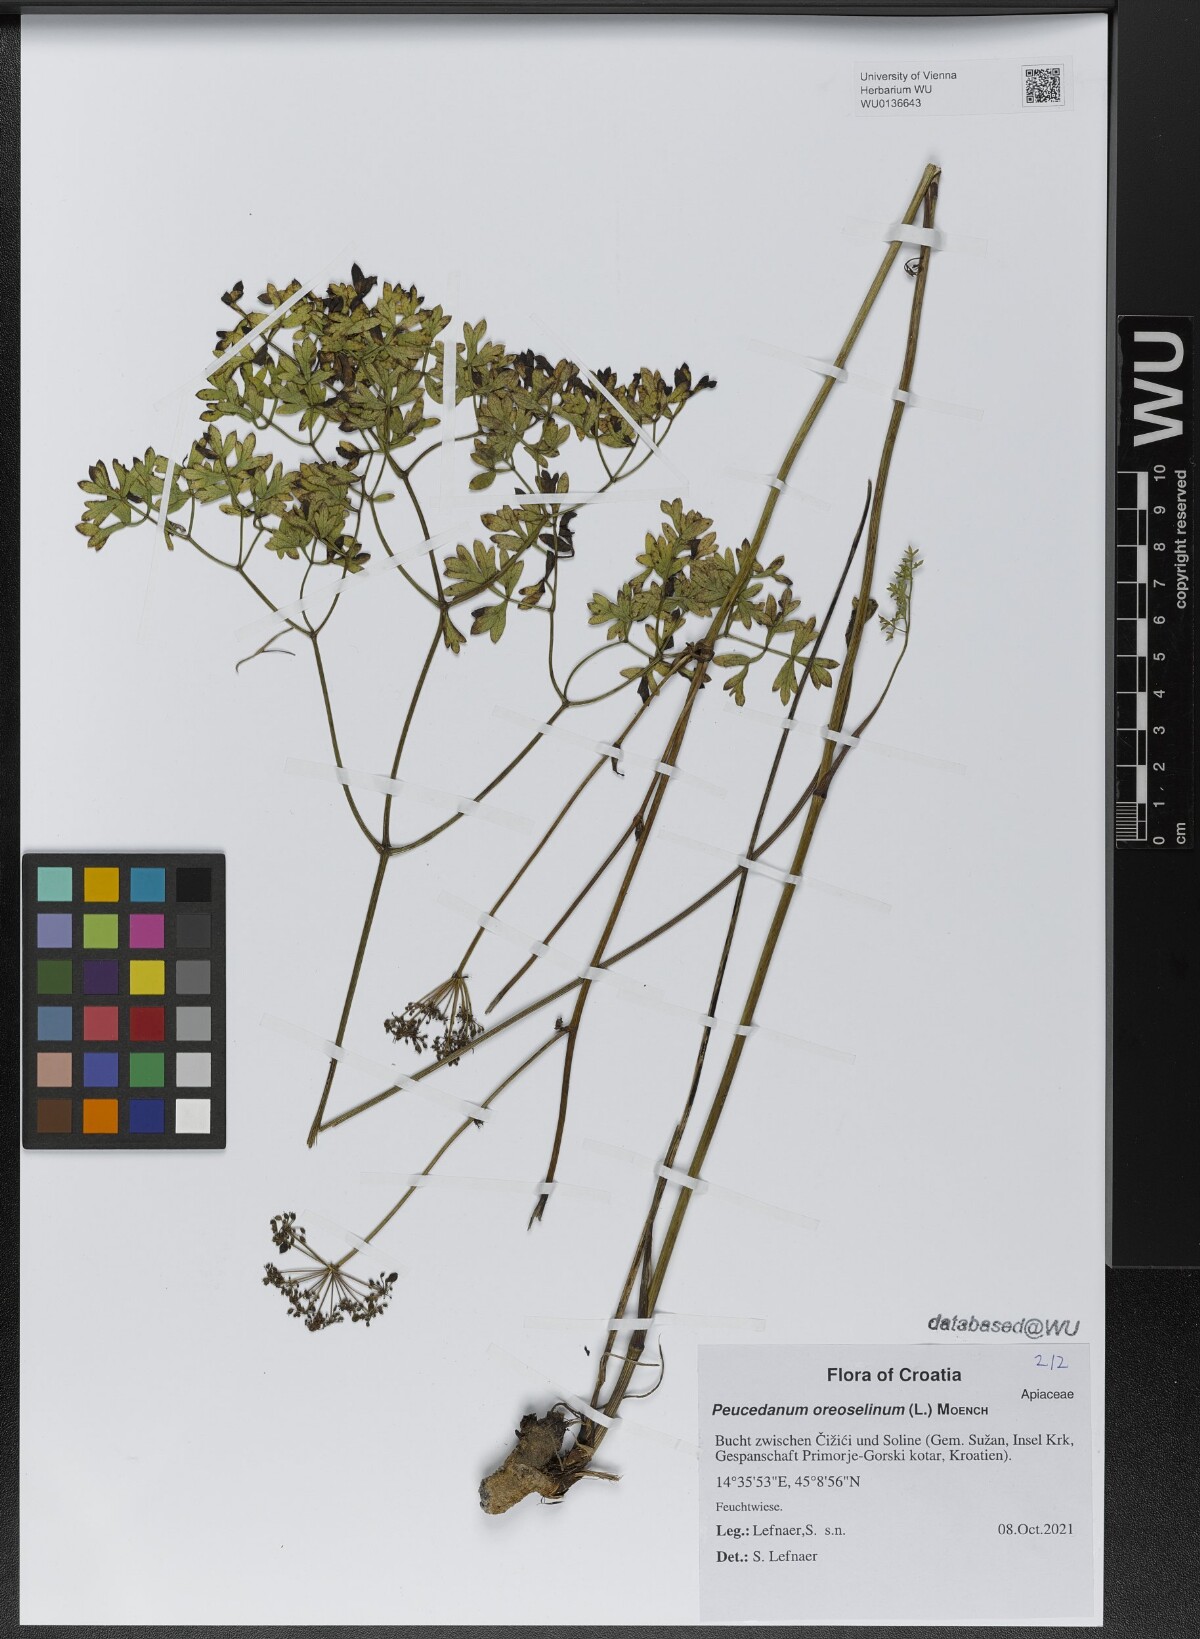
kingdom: Plantae
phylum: Tracheophyta
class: Magnoliopsida
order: Apiales
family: Apiaceae
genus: Oreoselinum
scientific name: Oreoselinum nigrum
